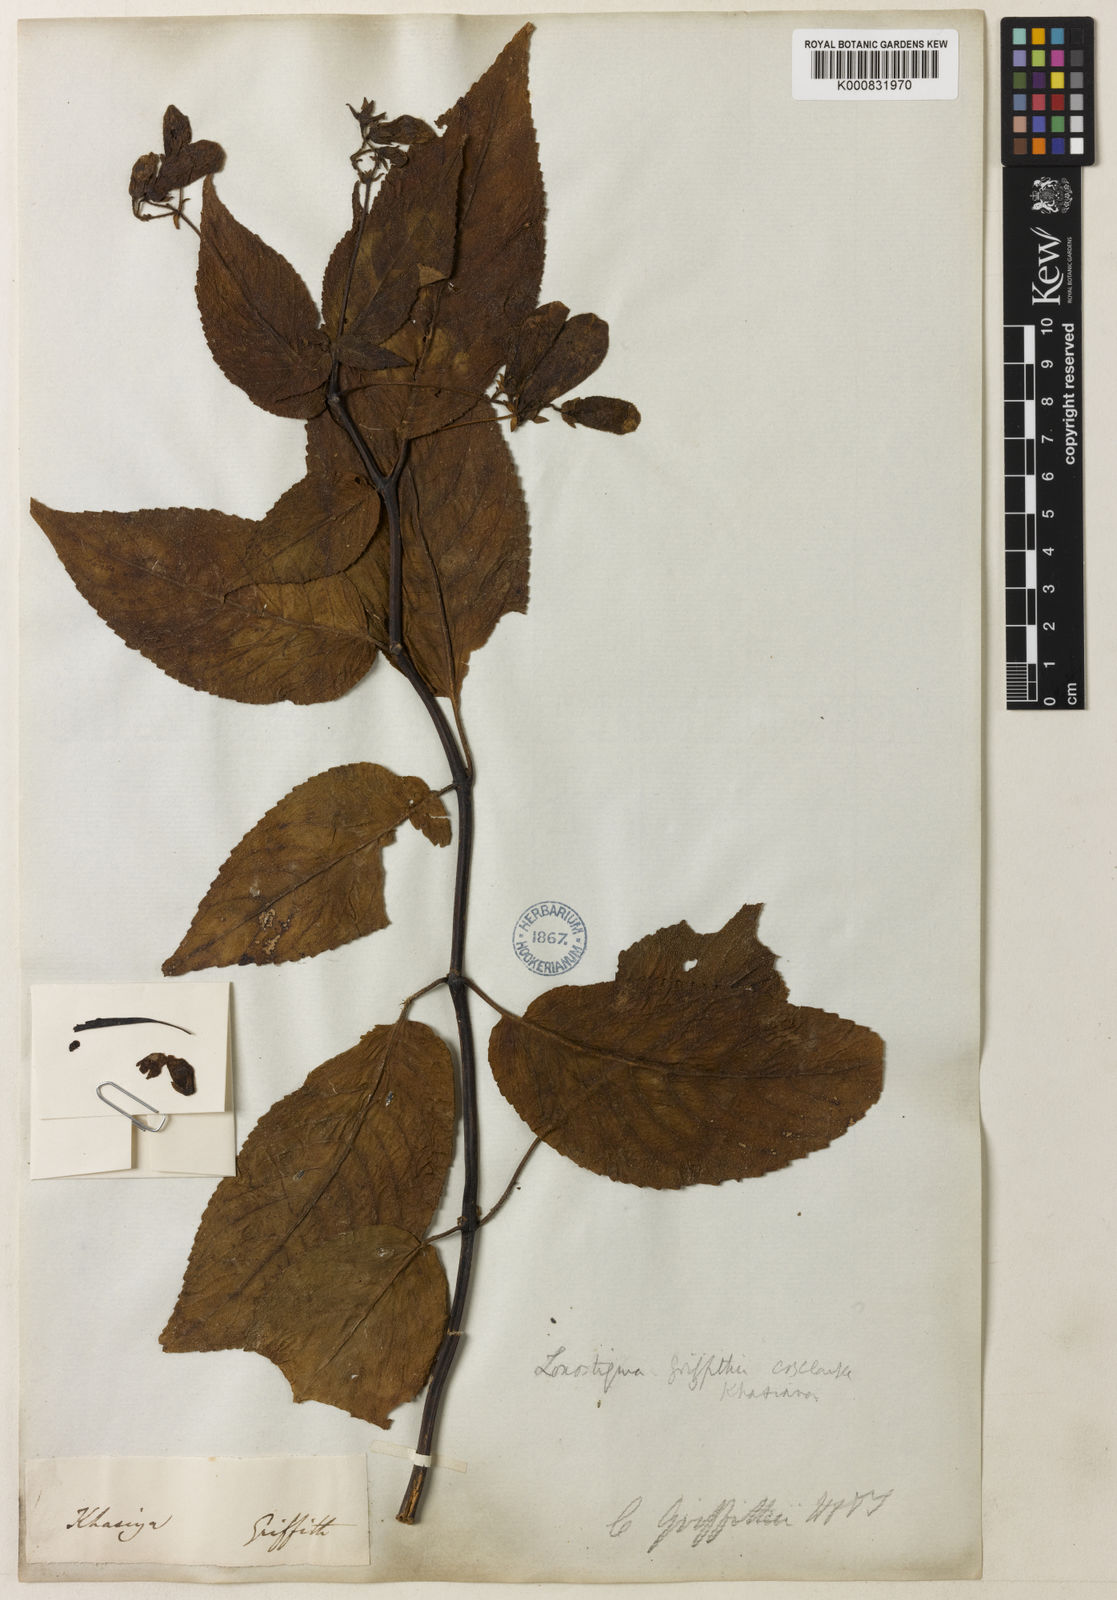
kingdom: Plantae
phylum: Tracheophyta
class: Magnoliopsida
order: Lamiales
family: Gesneriaceae
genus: Loxostigma
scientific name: Loxostigma griffithii
